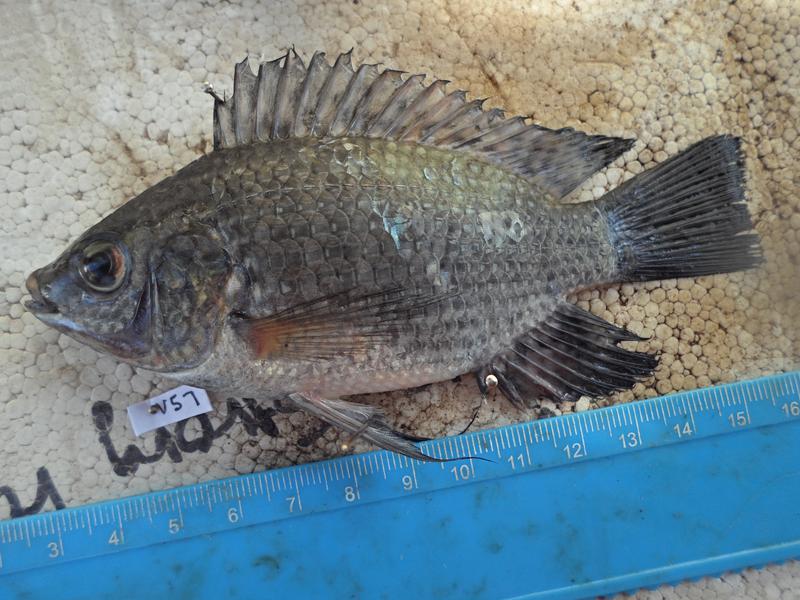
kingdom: Animalia
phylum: Chordata
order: Perciformes
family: Cichlidae
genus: Oreochromis
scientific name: Oreochromis leucostictus
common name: Blue spotted tilapia
